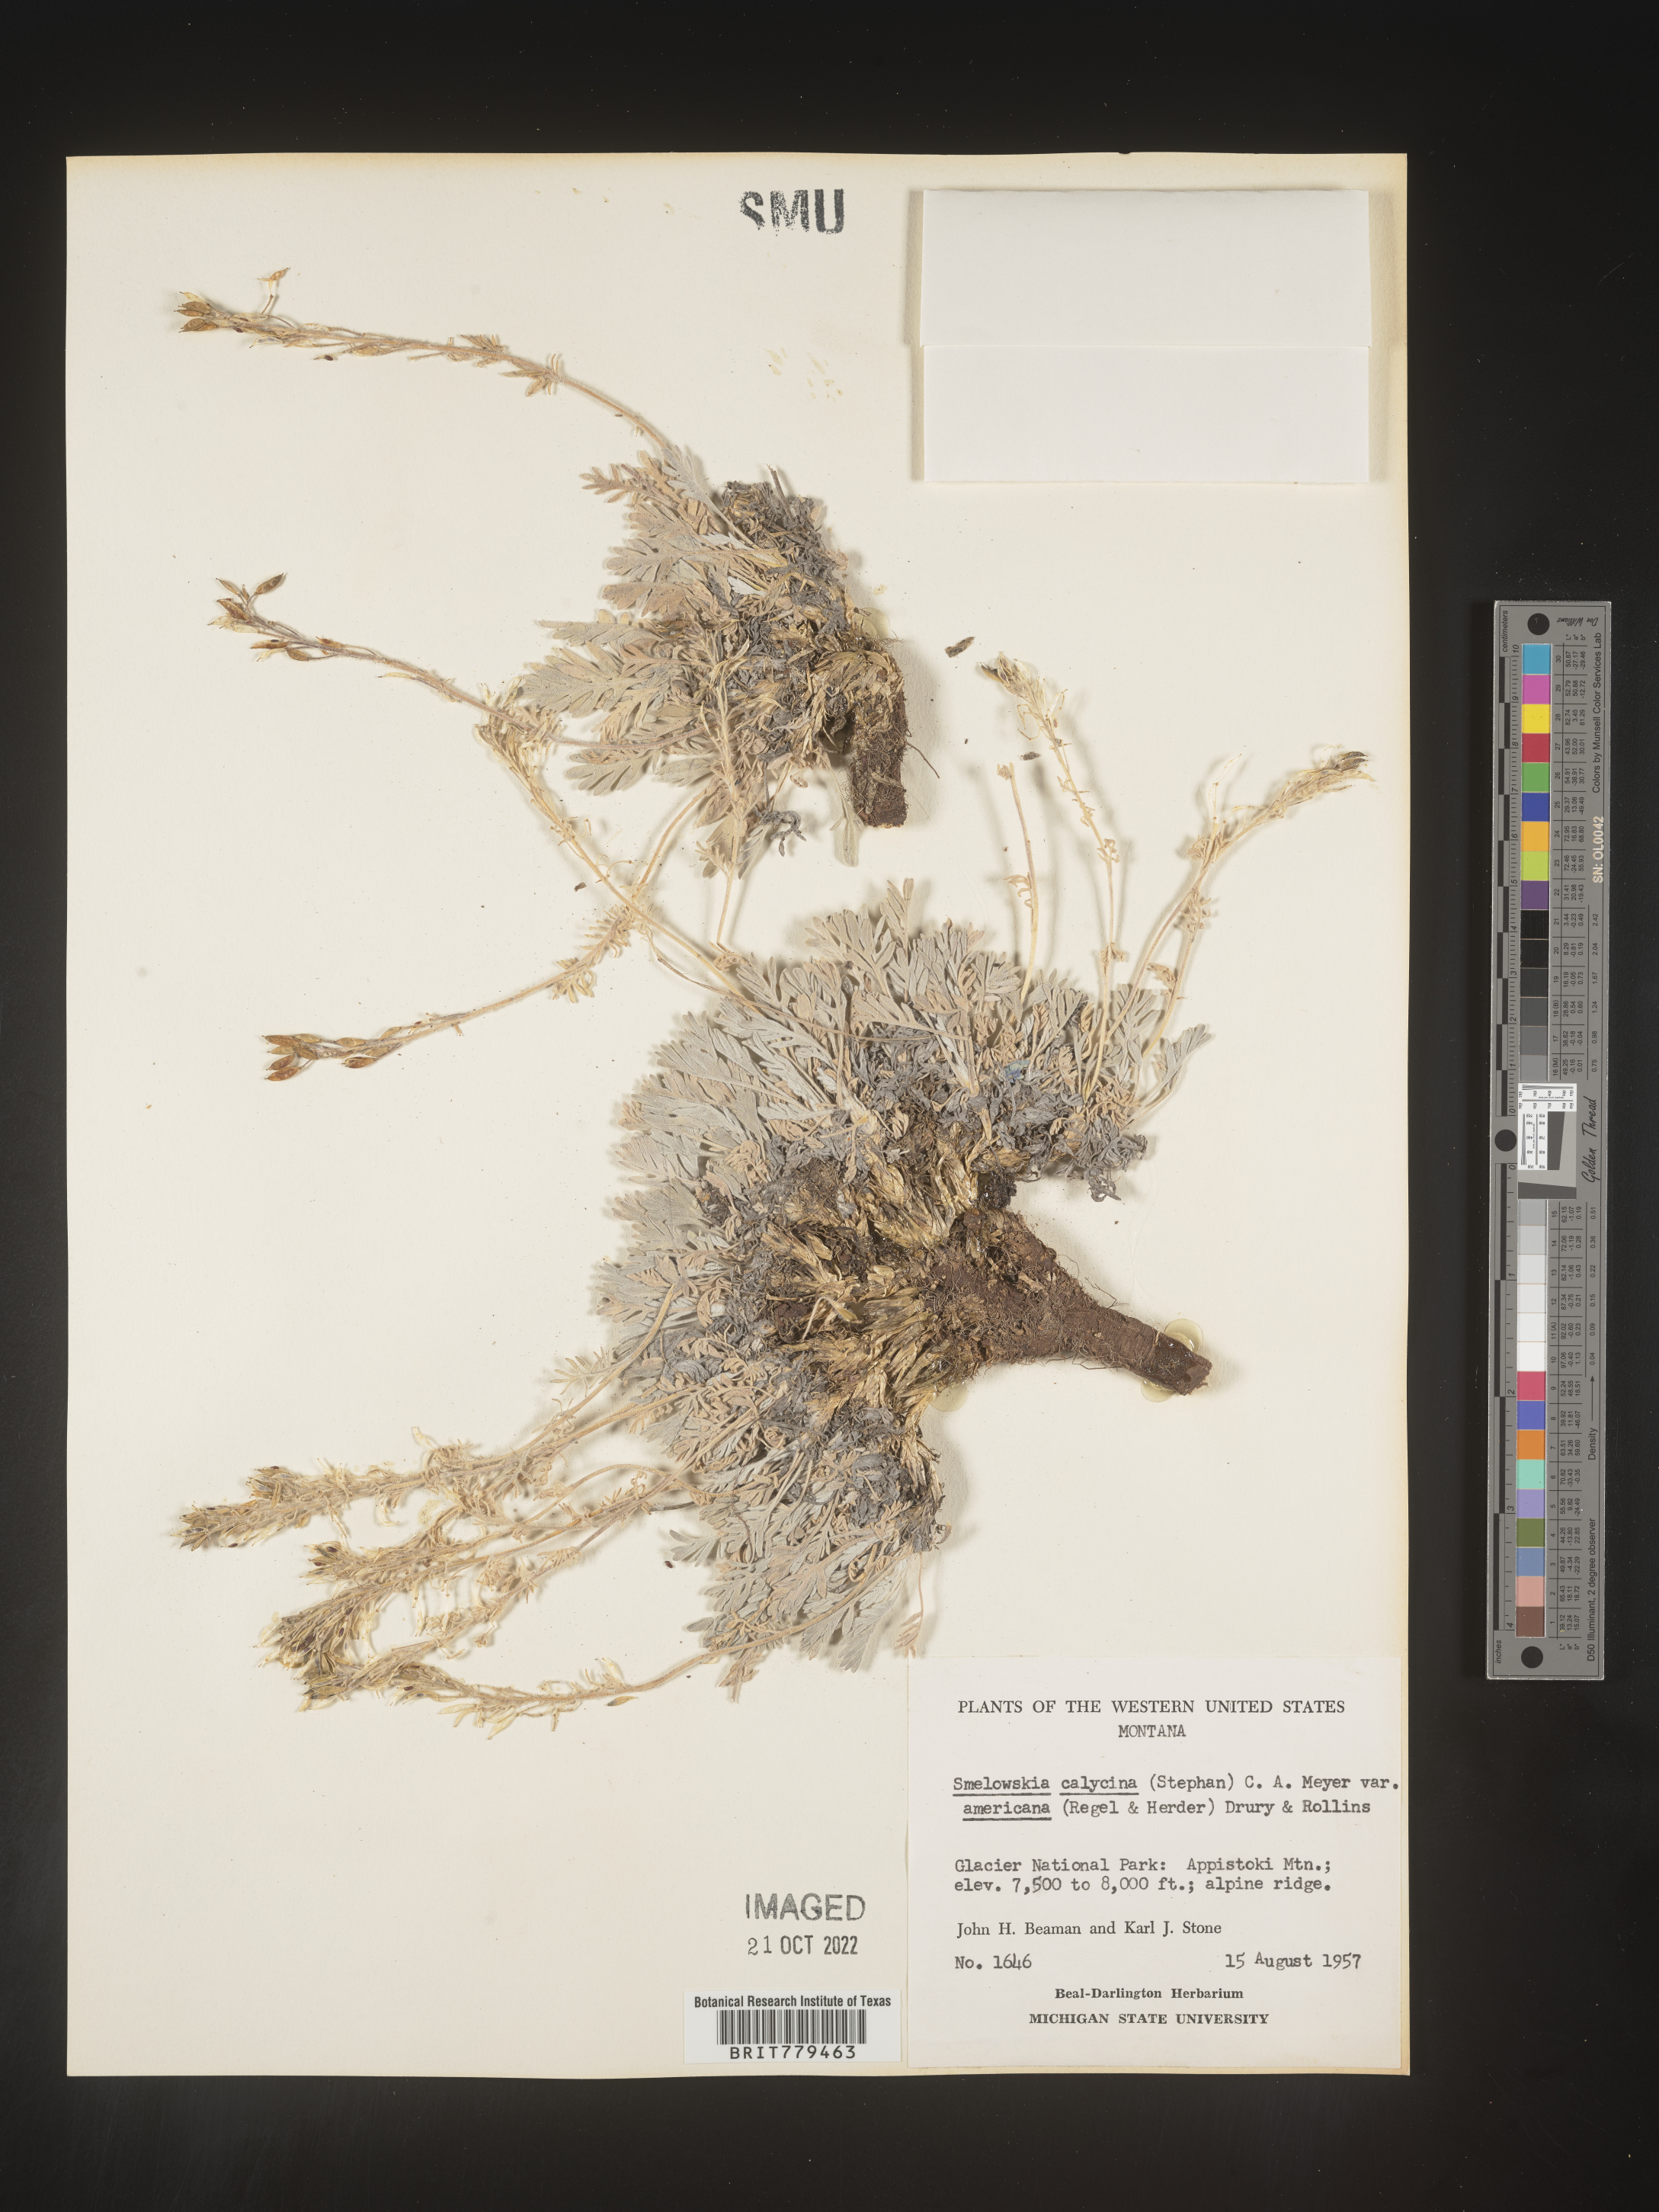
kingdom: Plantae
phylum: Tracheophyta
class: Magnoliopsida
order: Brassicales
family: Brassicaceae
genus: Smelowskia
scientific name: Smelowskia
